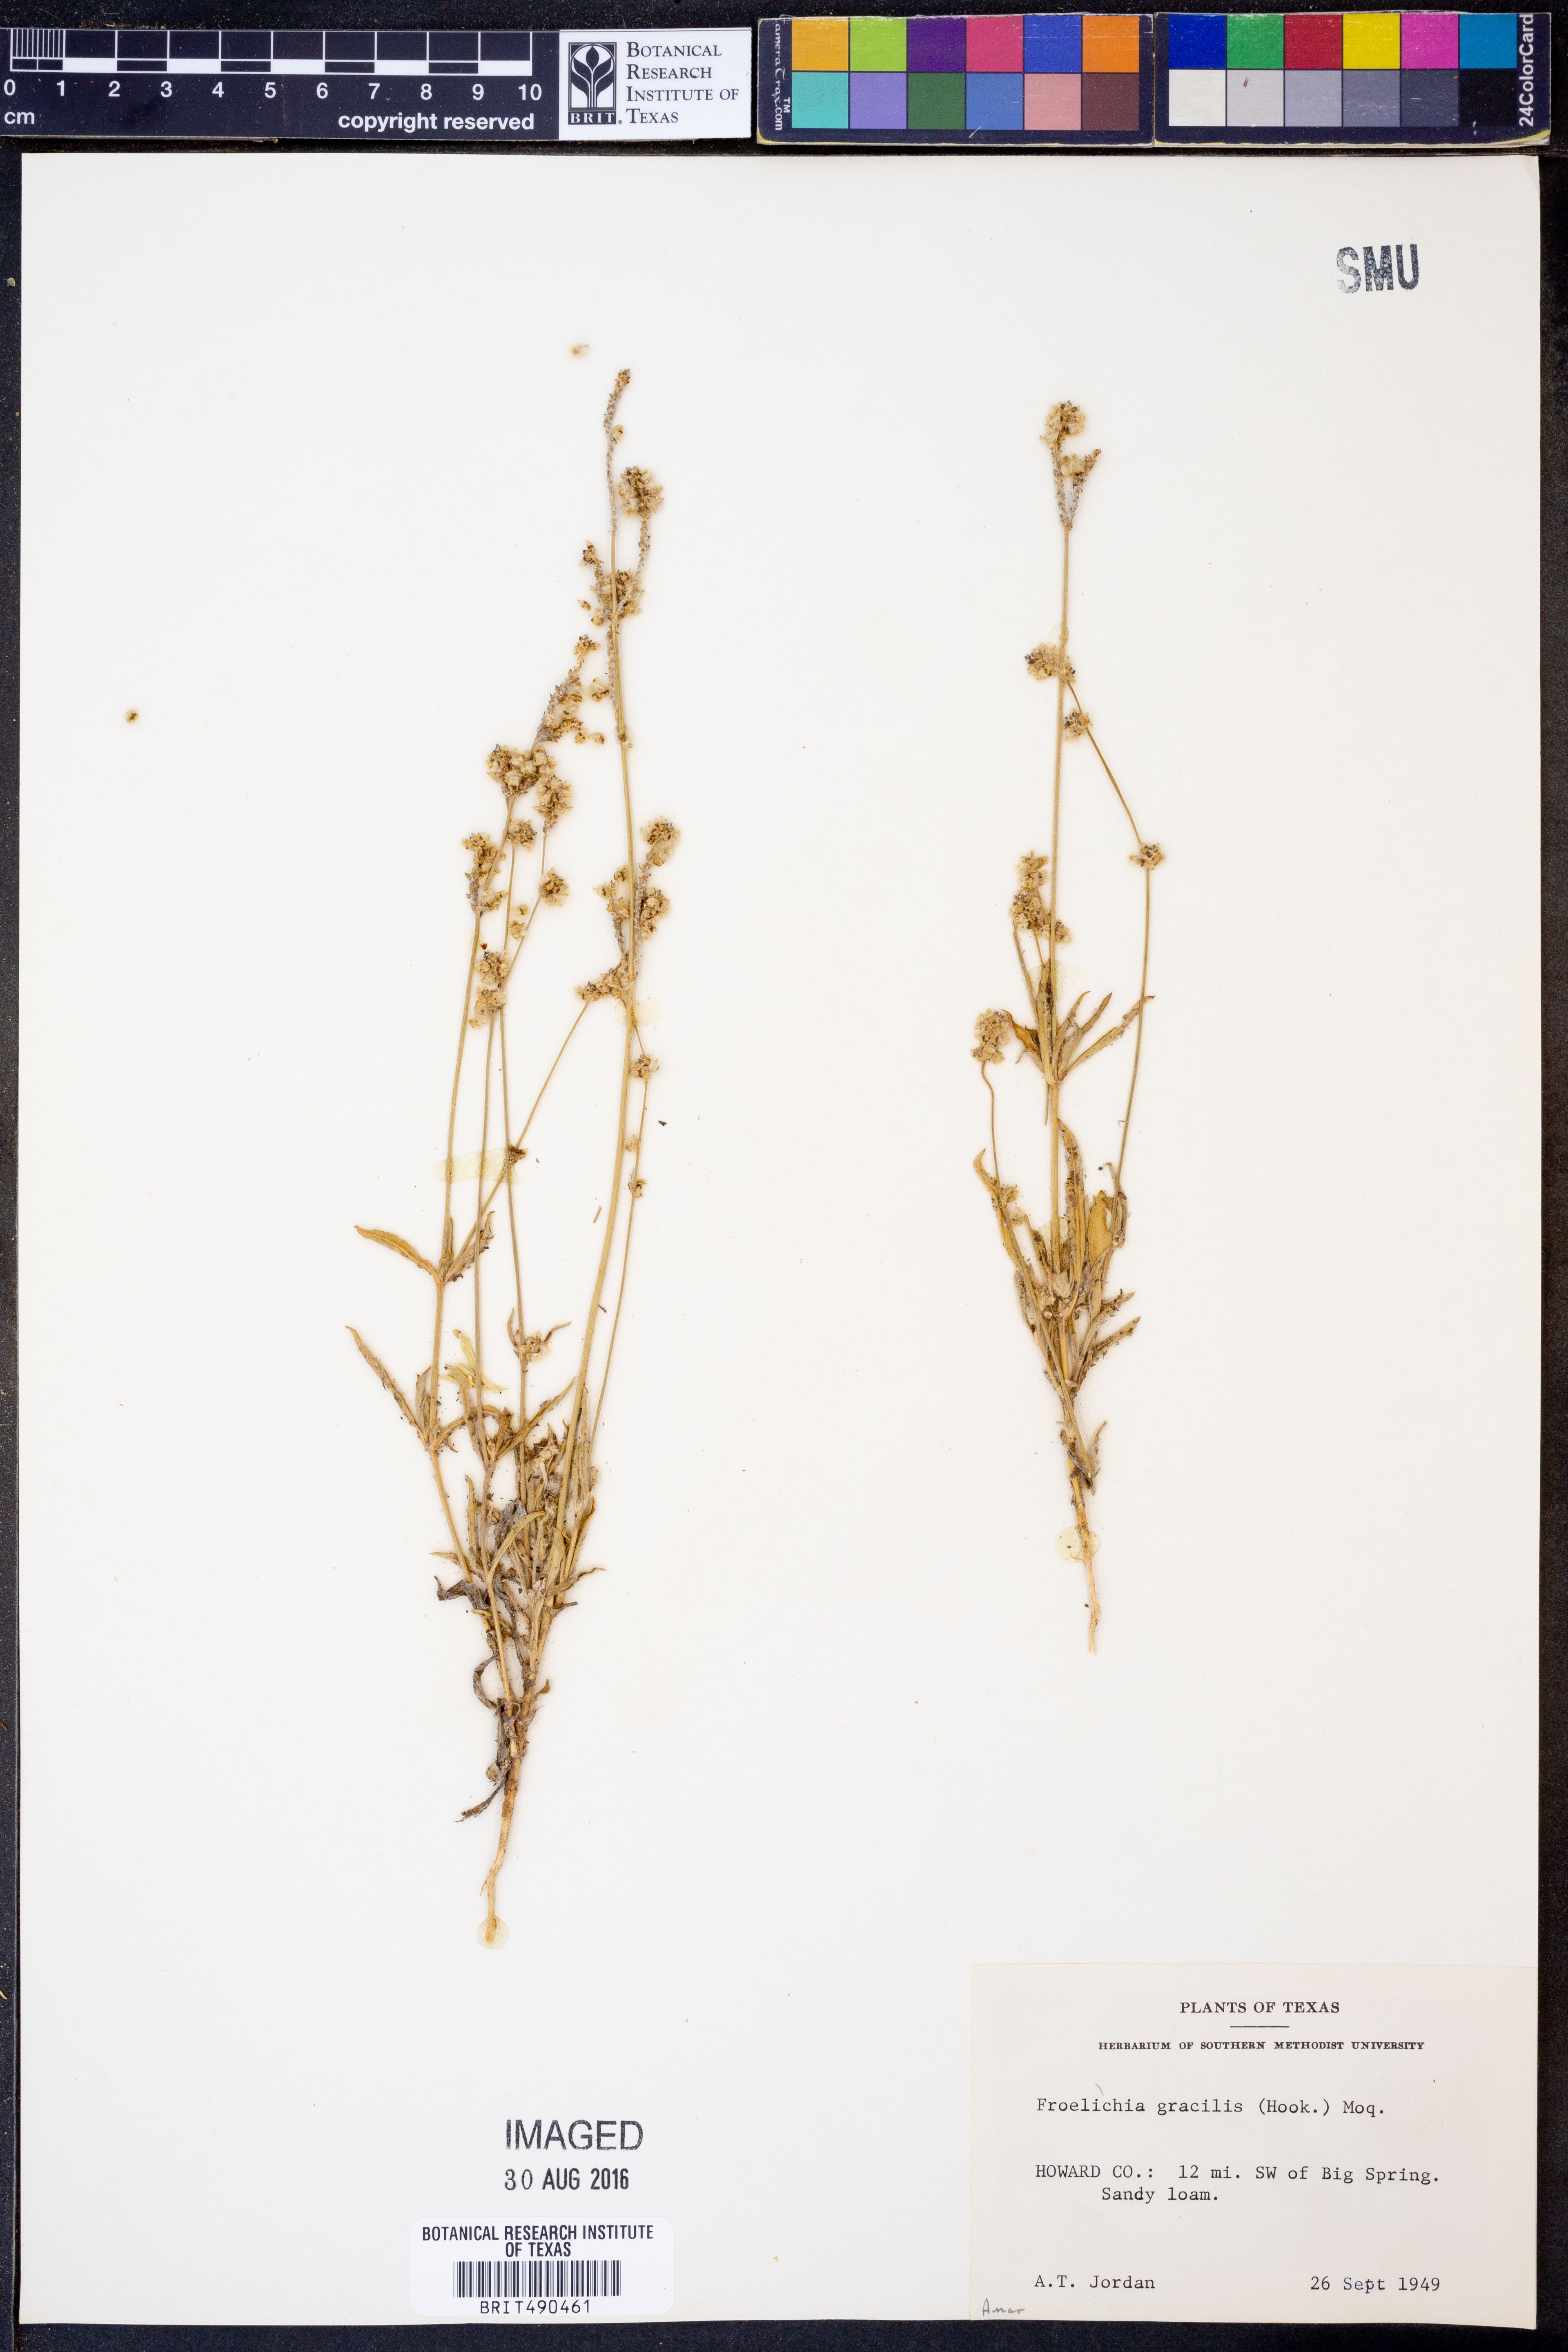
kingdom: Plantae
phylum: Tracheophyta
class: Magnoliopsida
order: Caryophyllales
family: Amaranthaceae
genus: Froelichia
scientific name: Froelichia gracilis
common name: Slender cottonweed
